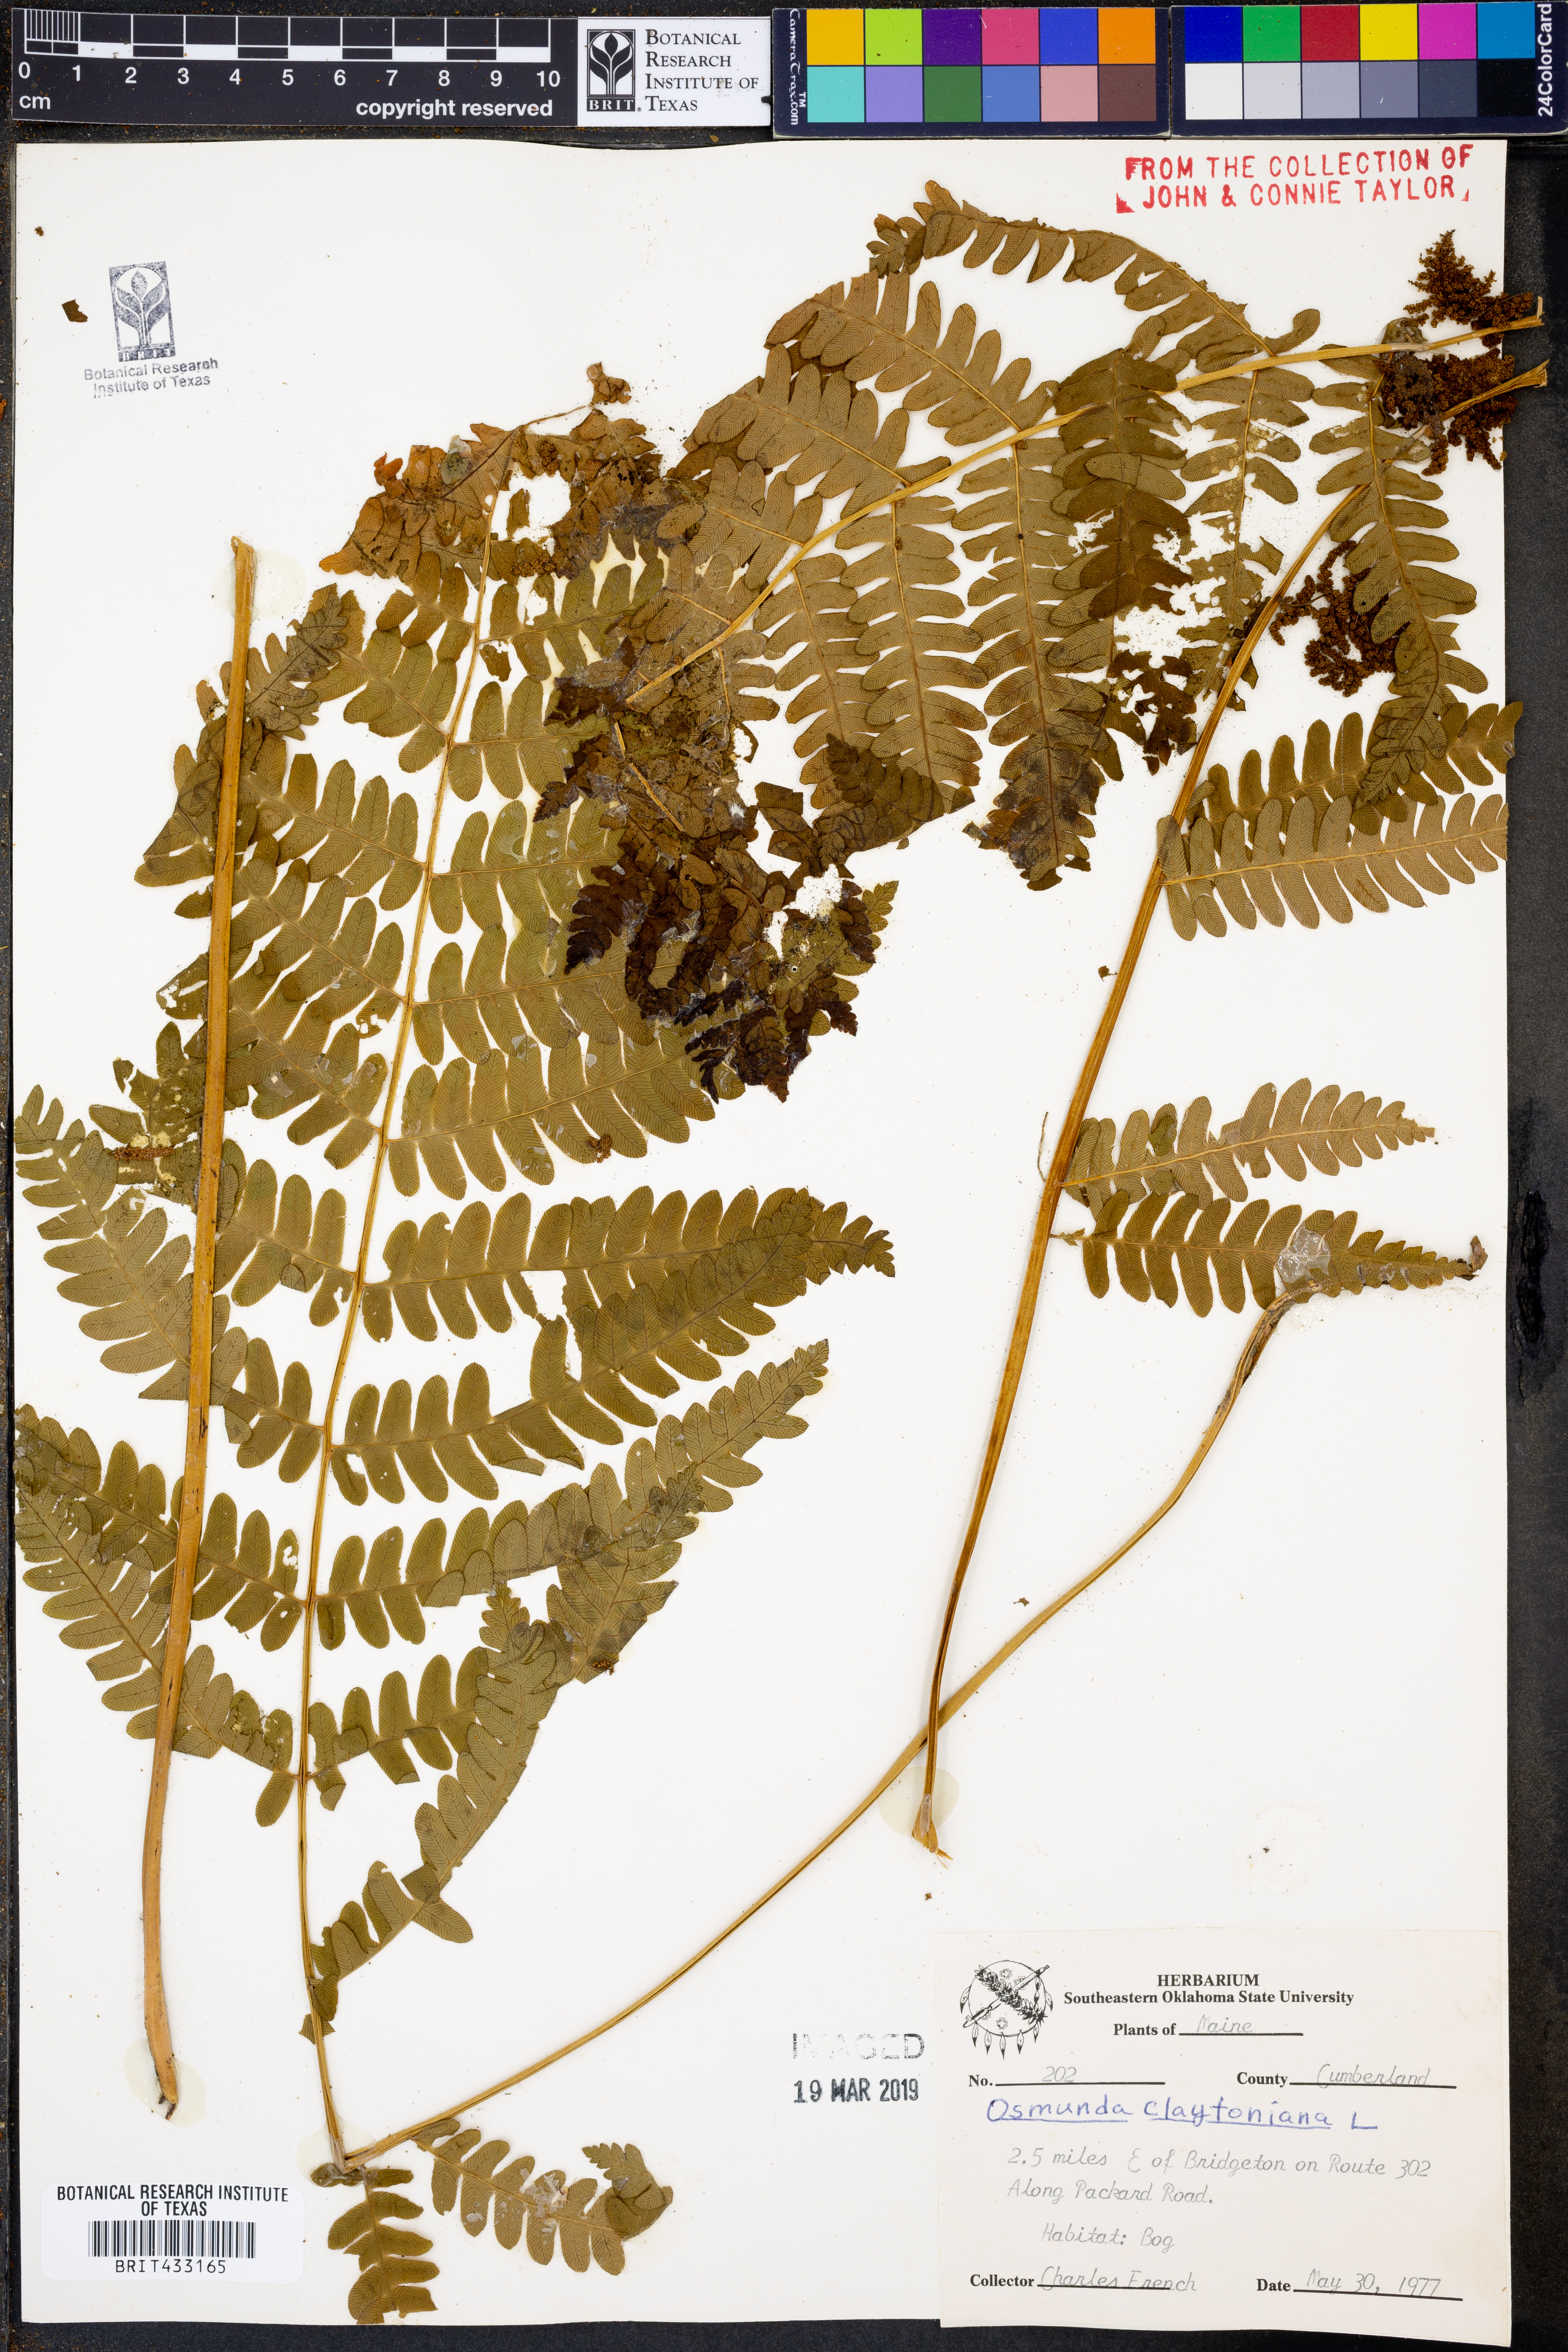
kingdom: Plantae
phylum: Tracheophyta
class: Polypodiopsida
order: Osmundales
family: Osmundaceae
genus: Claytosmunda
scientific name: Claytosmunda claytoniana
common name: Clayton's fern
